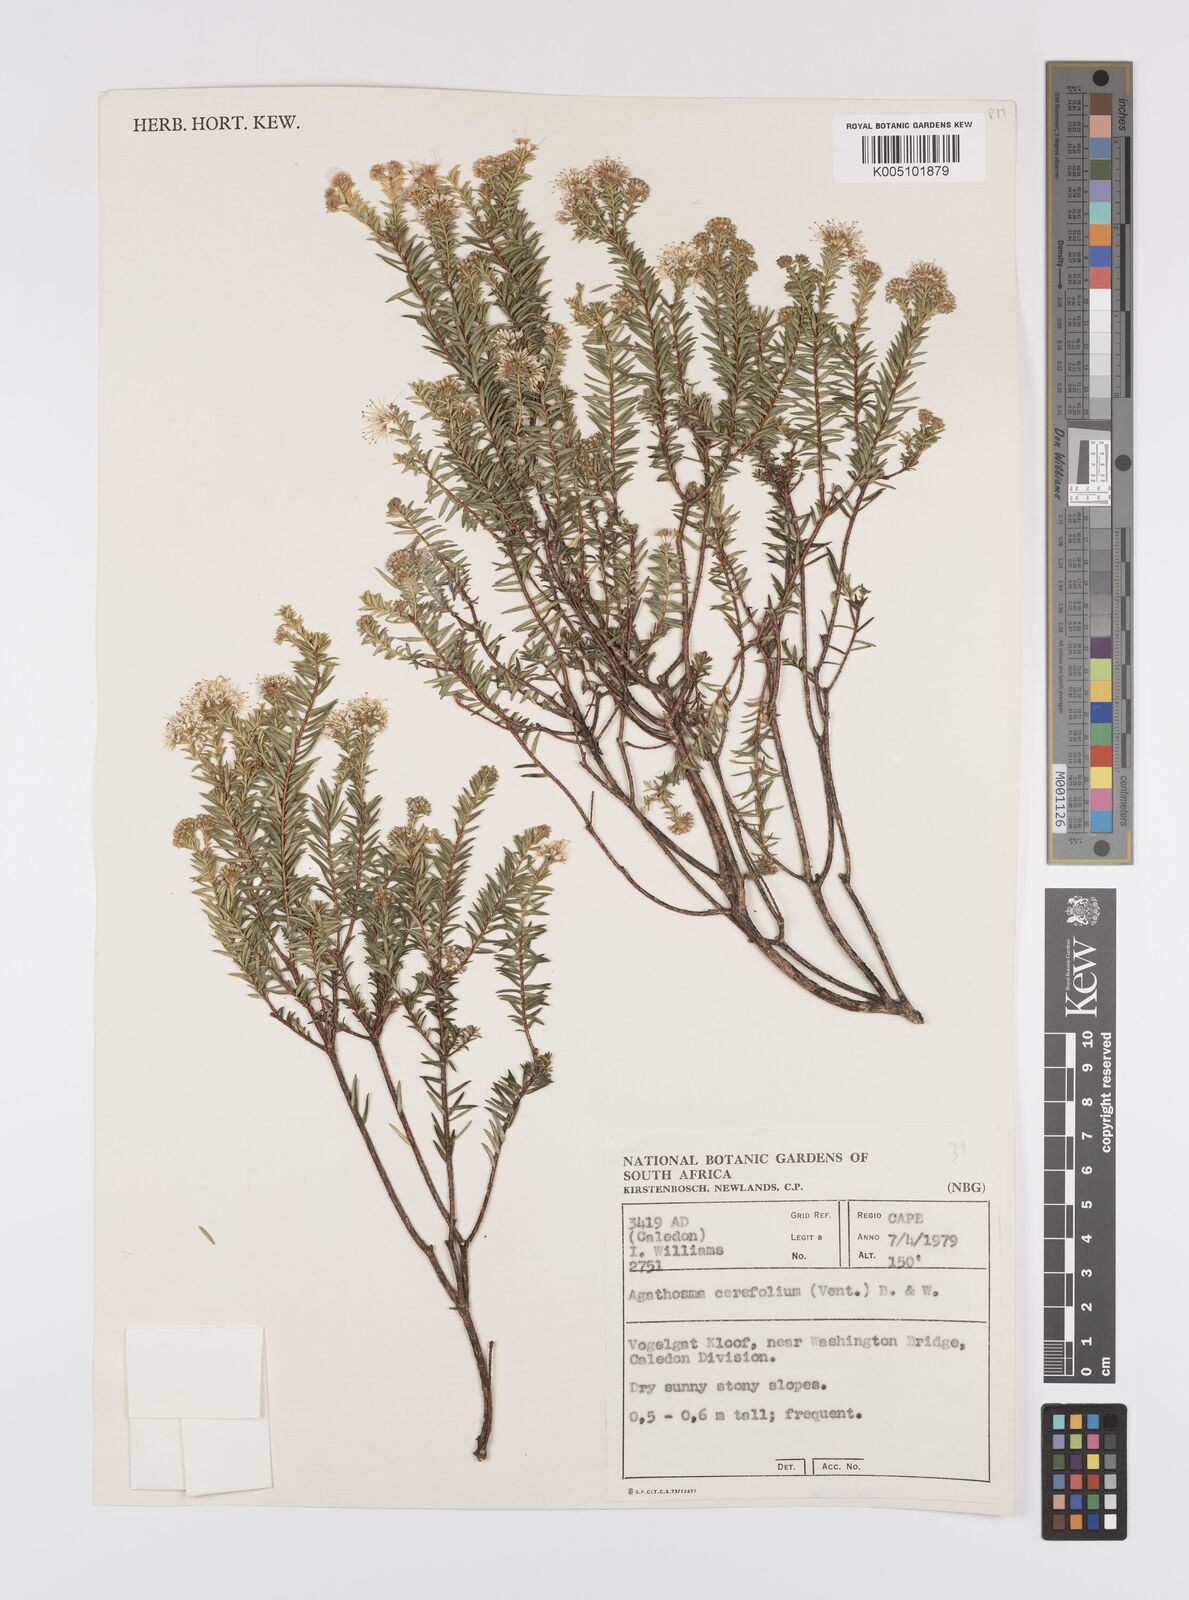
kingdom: Plantae
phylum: Tracheophyta
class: Magnoliopsida
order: Sapindales
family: Rutaceae
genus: Agathosma
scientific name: Agathosma cerefolia
